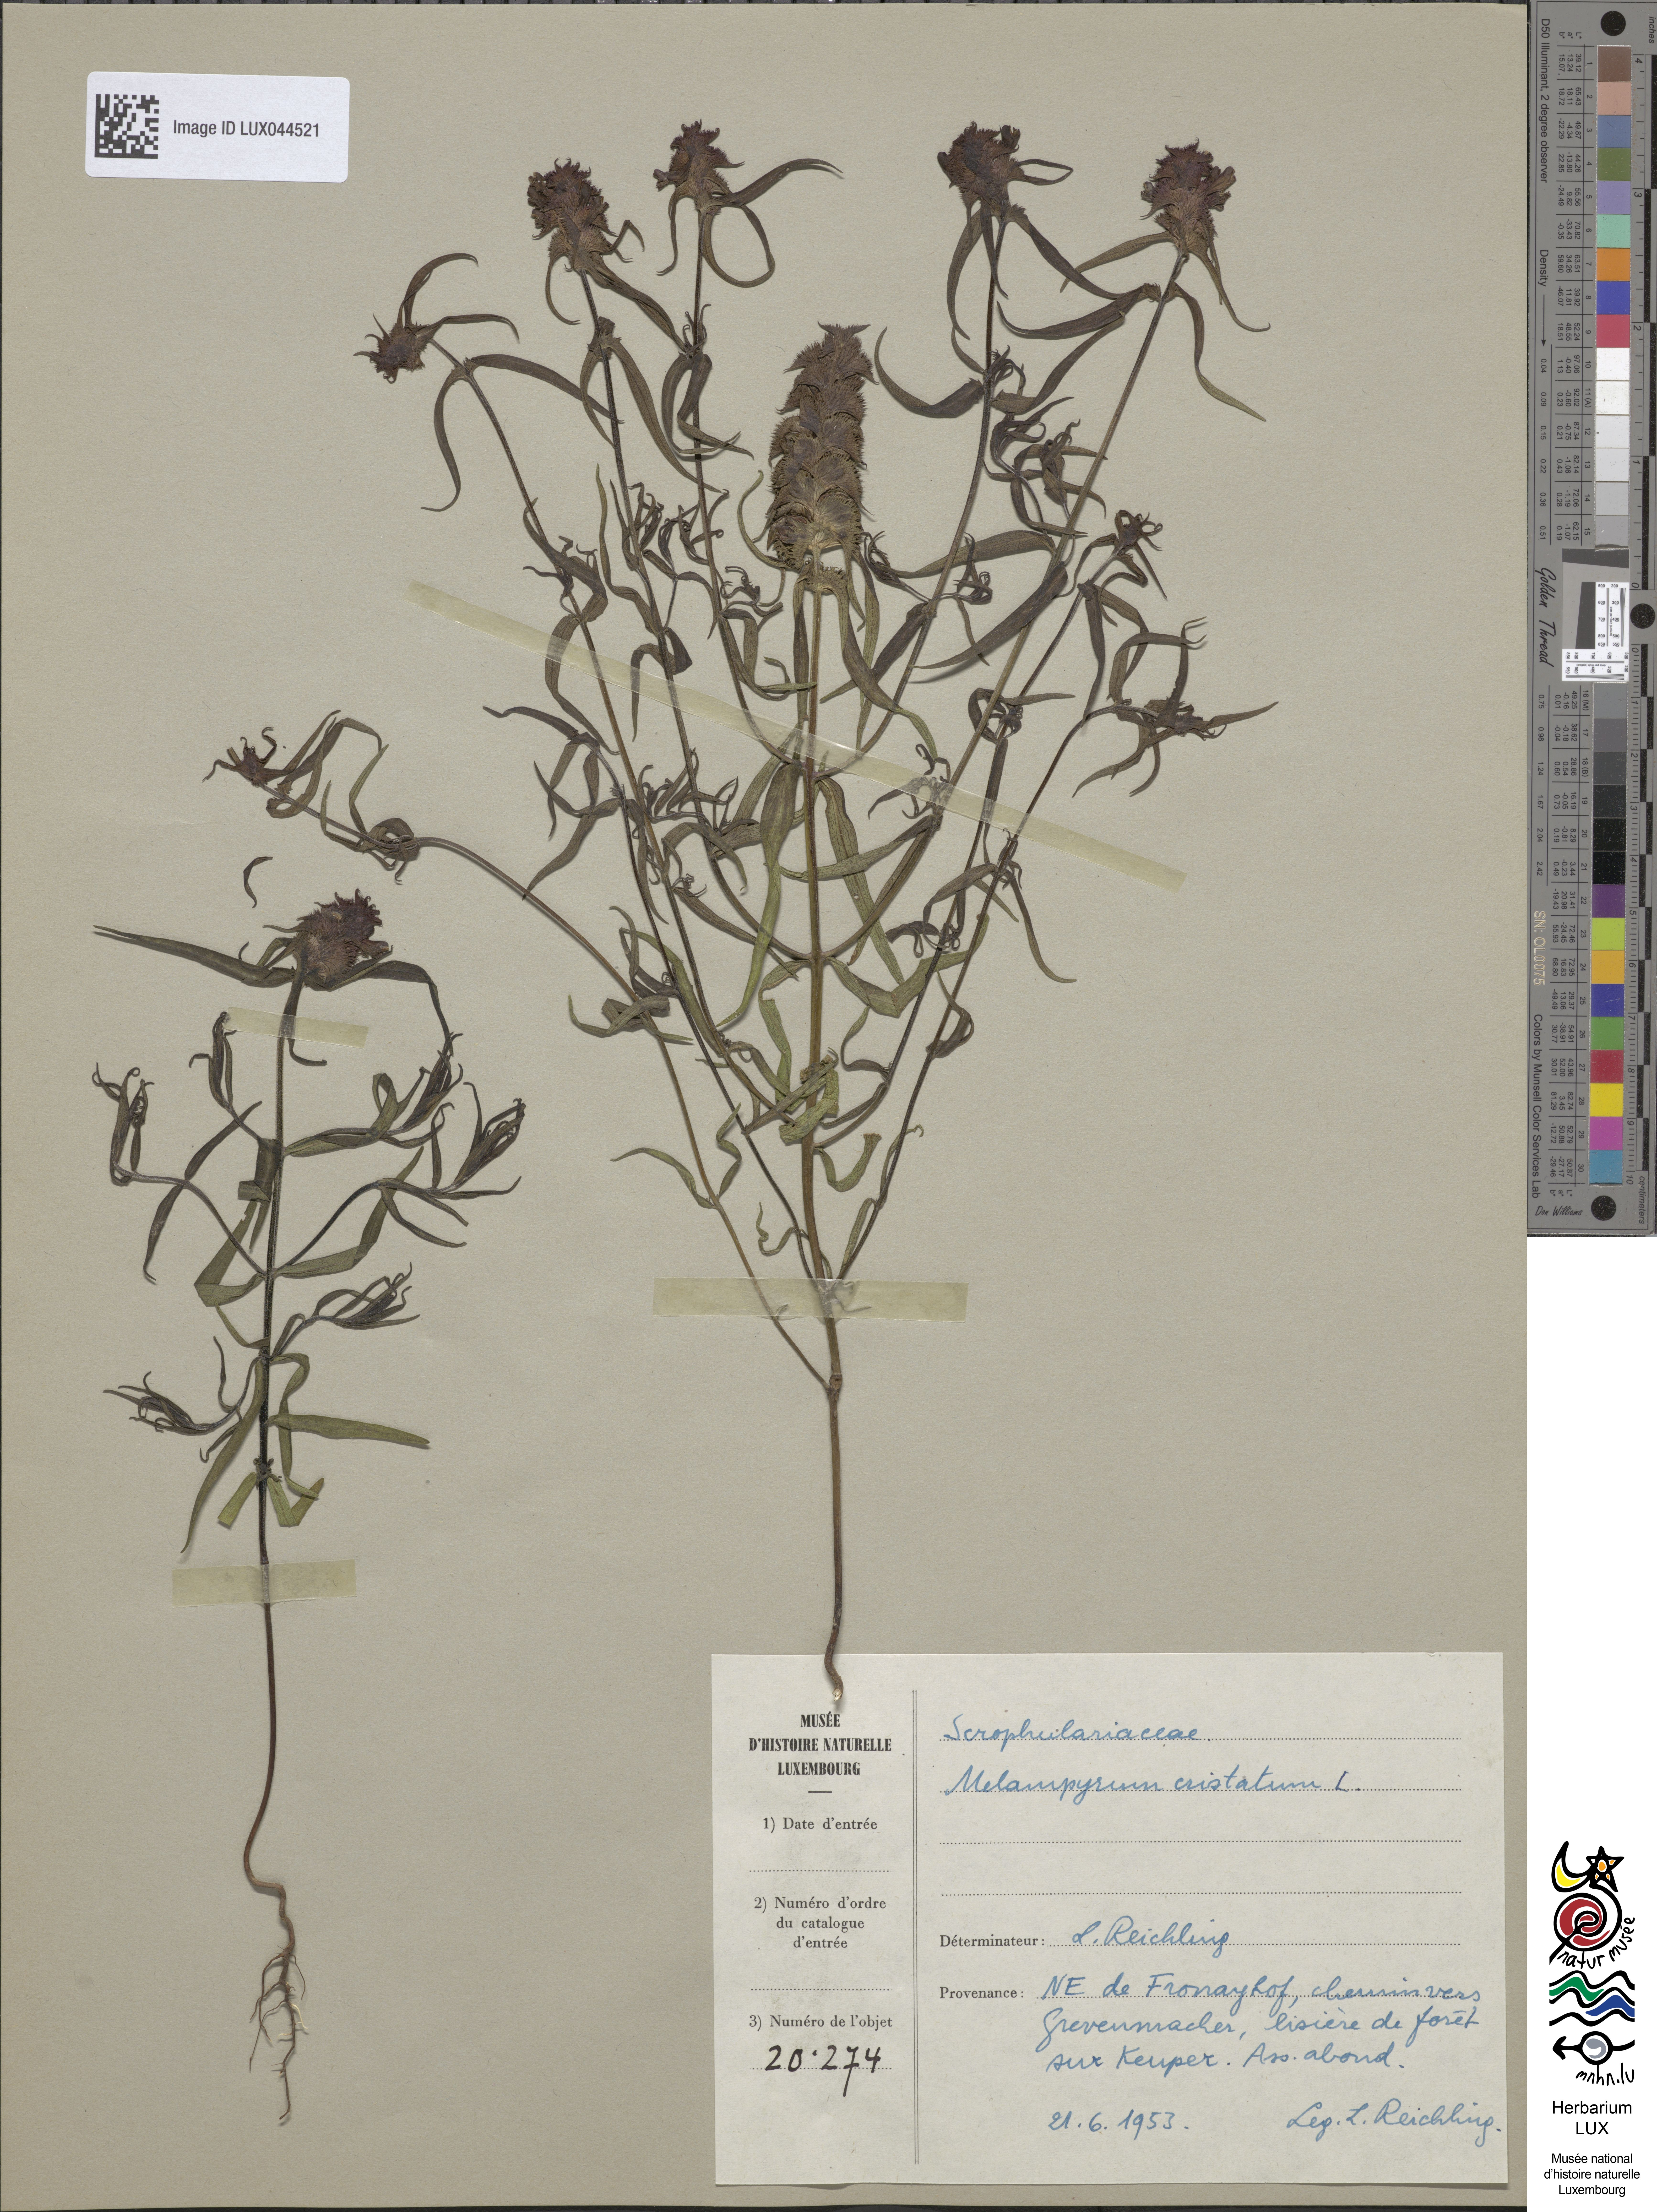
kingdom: Plantae
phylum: Tracheophyta
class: Magnoliopsida
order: Lamiales
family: Orobanchaceae
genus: Melampyrum
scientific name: Melampyrum cristatum
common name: Crested cow-wheat
